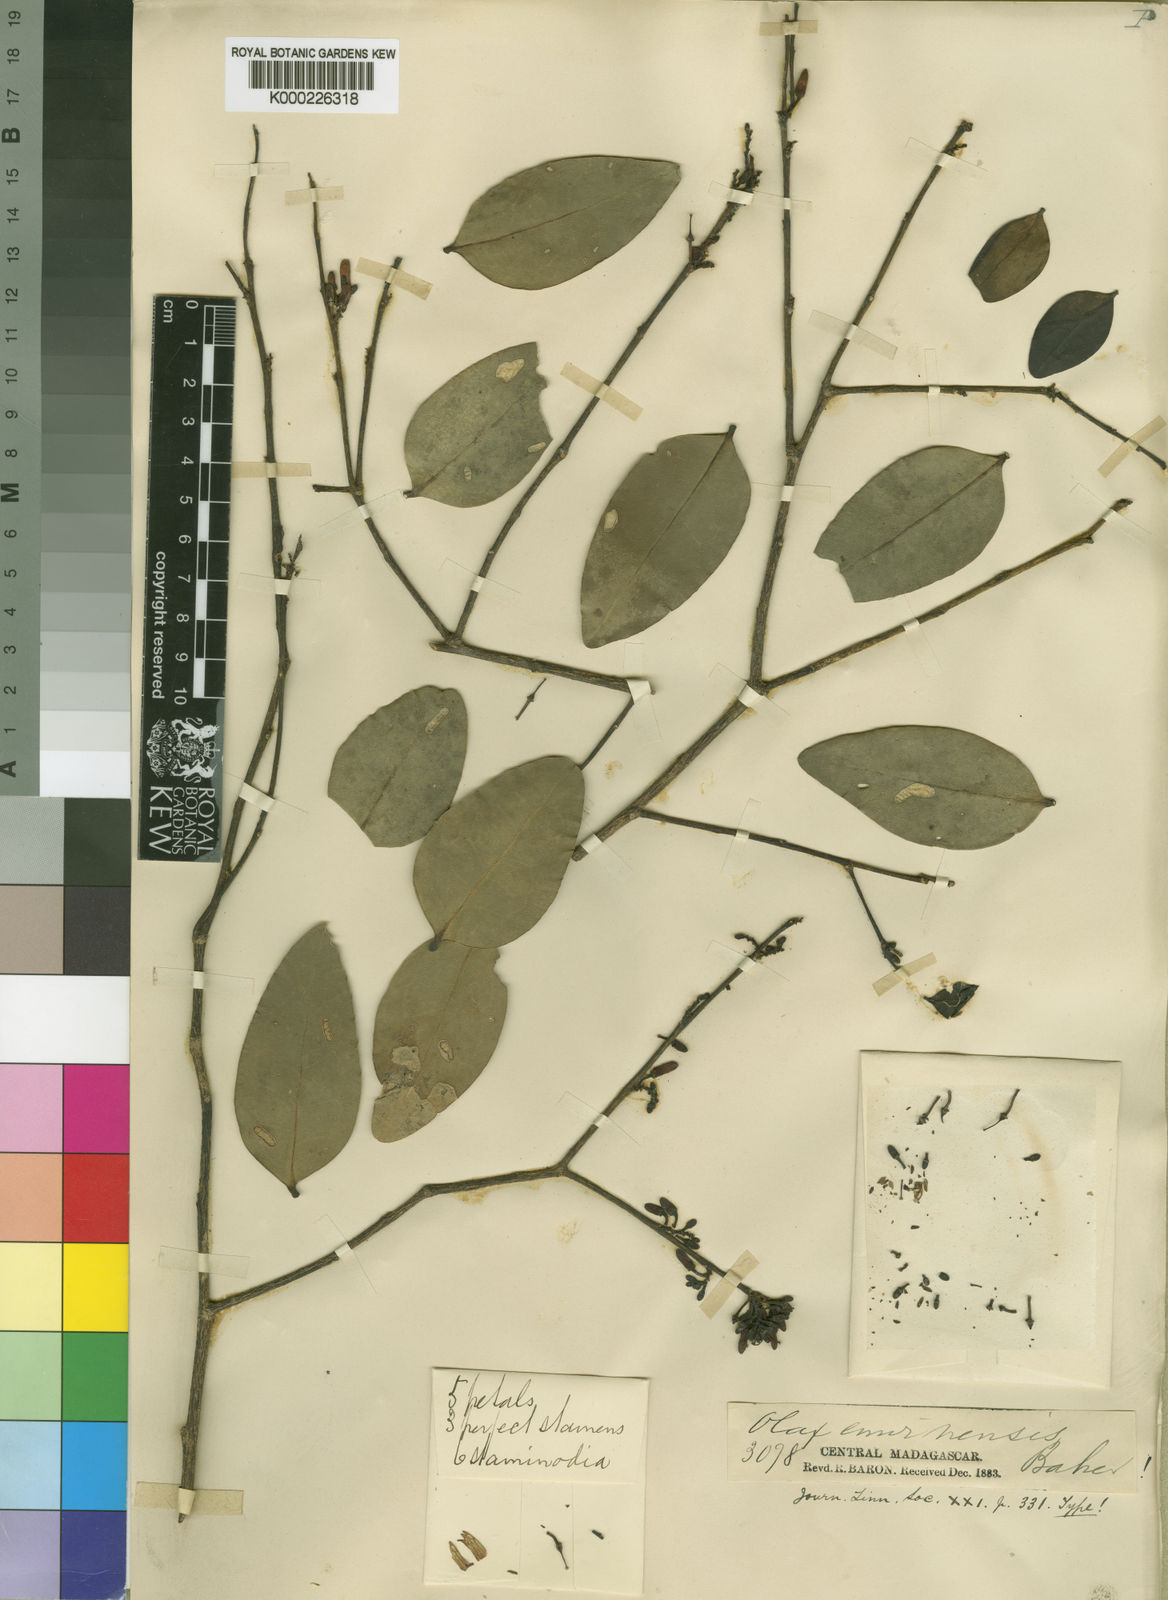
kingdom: Plantae
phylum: Tracheophyta
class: Magnoliopsida
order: Santalales
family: Olacaceae
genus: Olax
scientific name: Olax emirnensis
